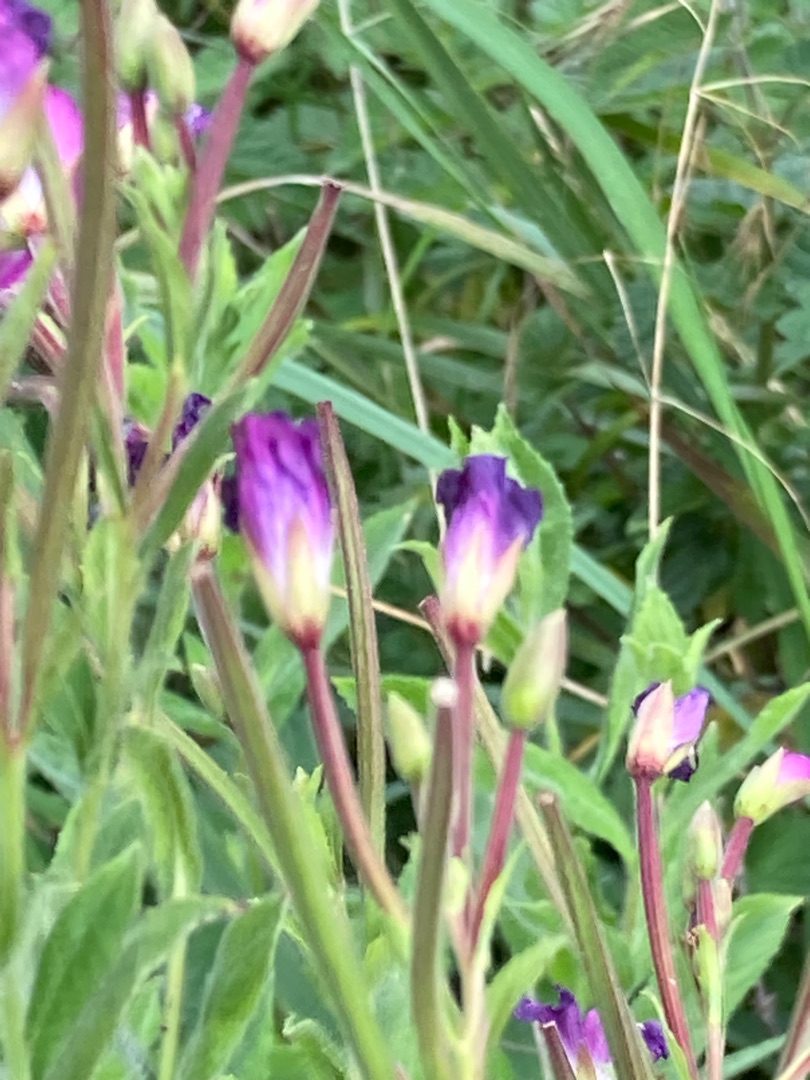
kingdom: Plantae
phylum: Tracheophyta
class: Magnoliopsida
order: Myrtales
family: Onagraceae
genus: Epilobium
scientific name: Epilobium hirsutum
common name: Lådden dueurt
